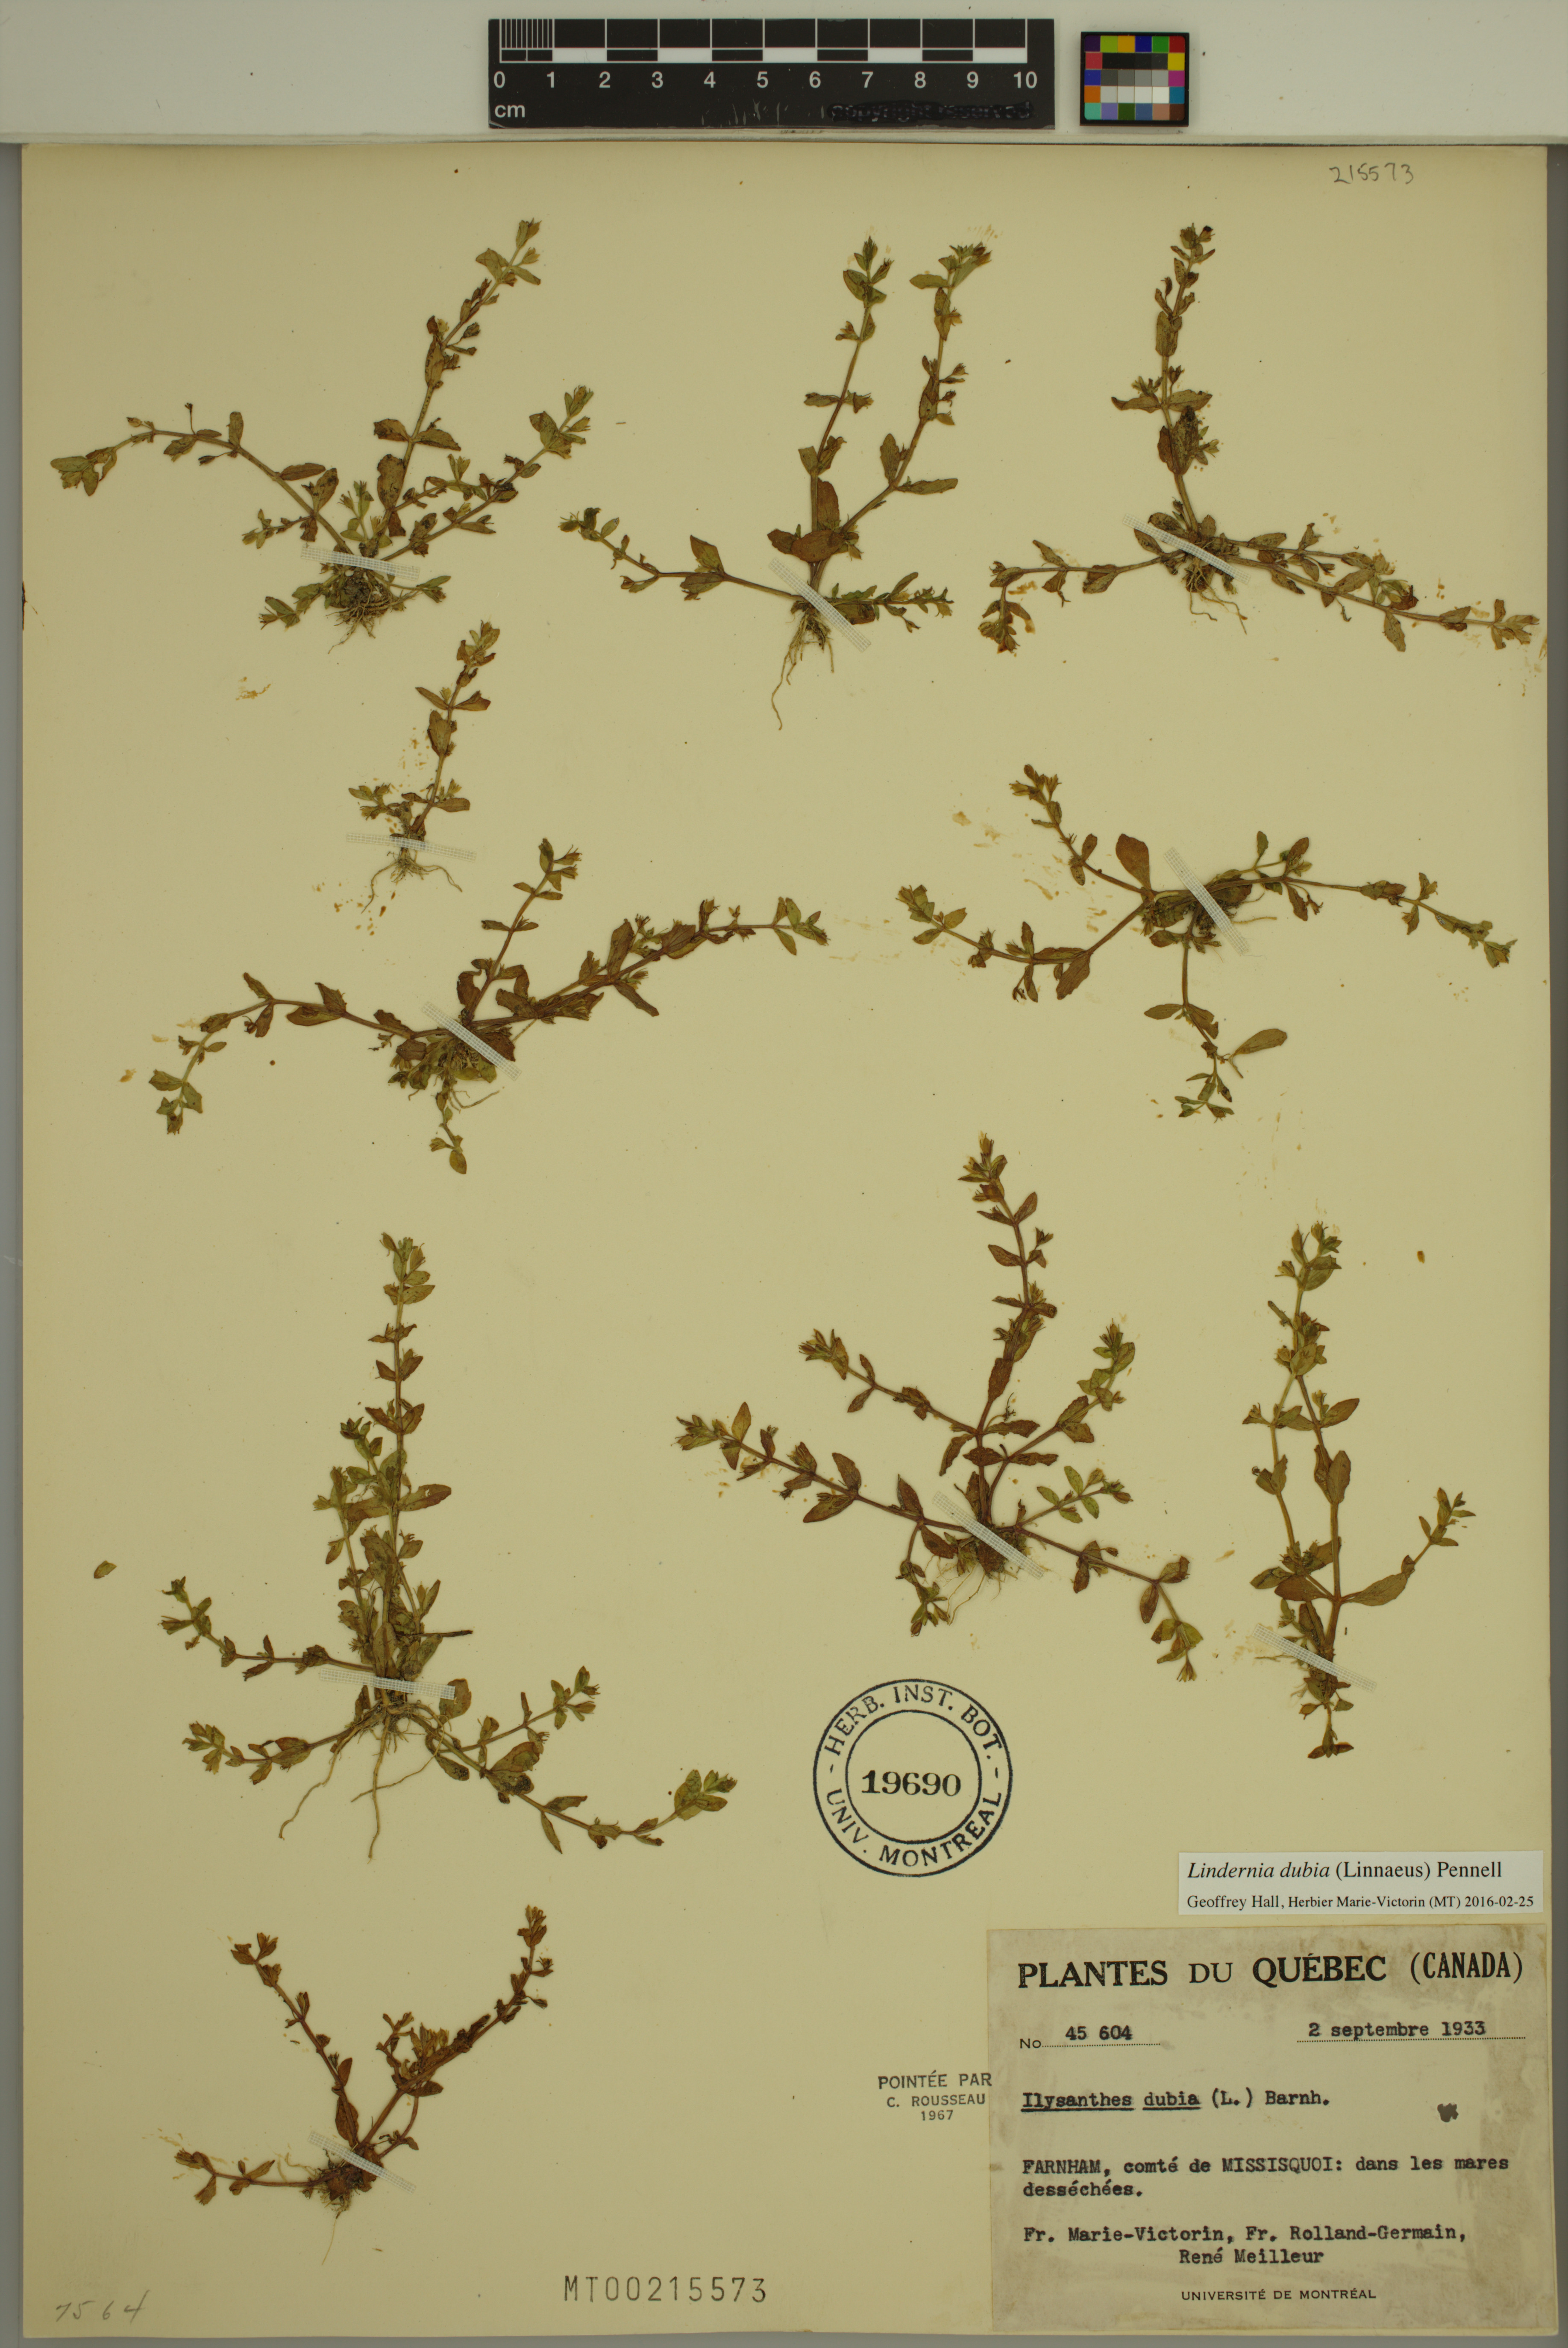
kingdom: Plantae
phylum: Tracheophyta
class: Magnoliopsida
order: Lamiales
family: Linderniaceae
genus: Lindernia
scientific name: Lindernia dubia
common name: Annual false pimpernel
